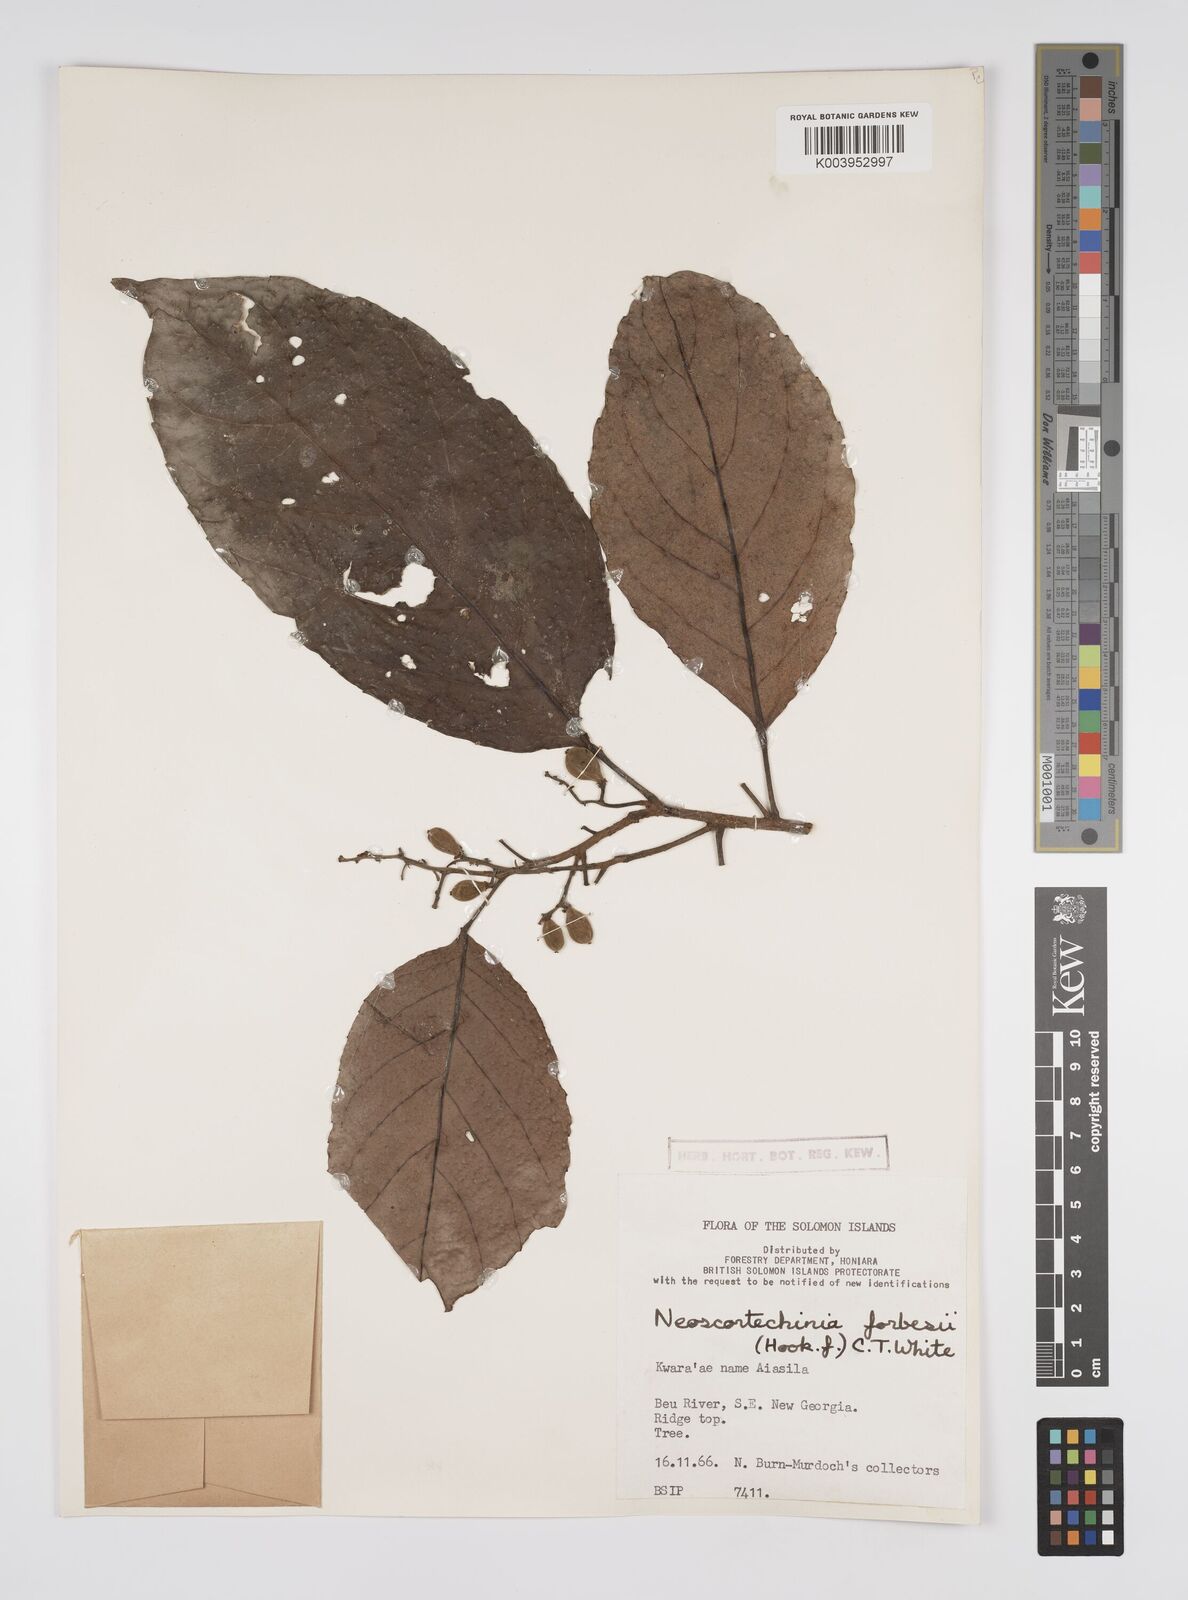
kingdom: Plantae
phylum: Tracheophyta
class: Magnoliopsida
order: Malpighiales
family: Euphorbiaceae
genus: Neoscortechinia
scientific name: Neoscortechinia forbesii
